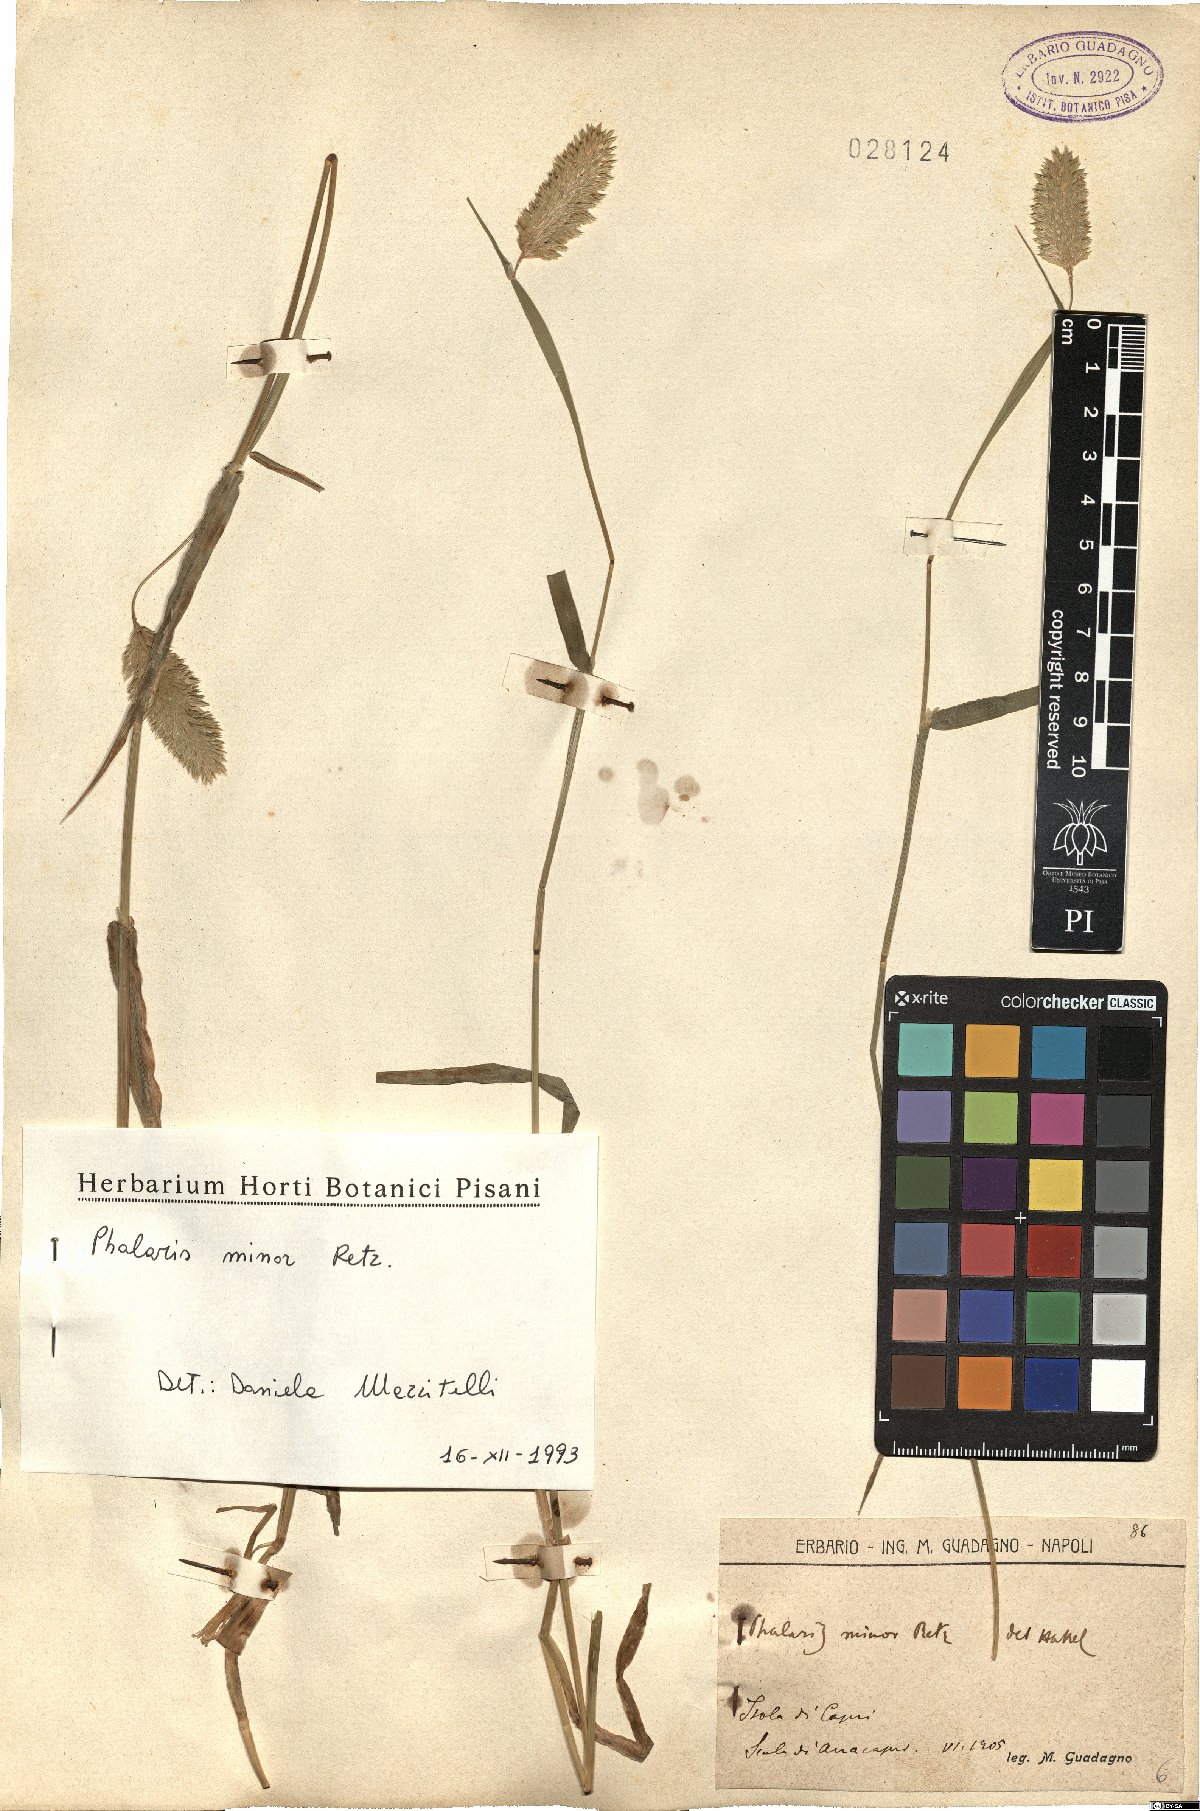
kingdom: Plantae
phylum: Tracheophyta
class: Liliopsida
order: Poales
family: Poaceae
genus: Phalaris
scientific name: Phalaris minor
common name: Littleseed canarygrass
